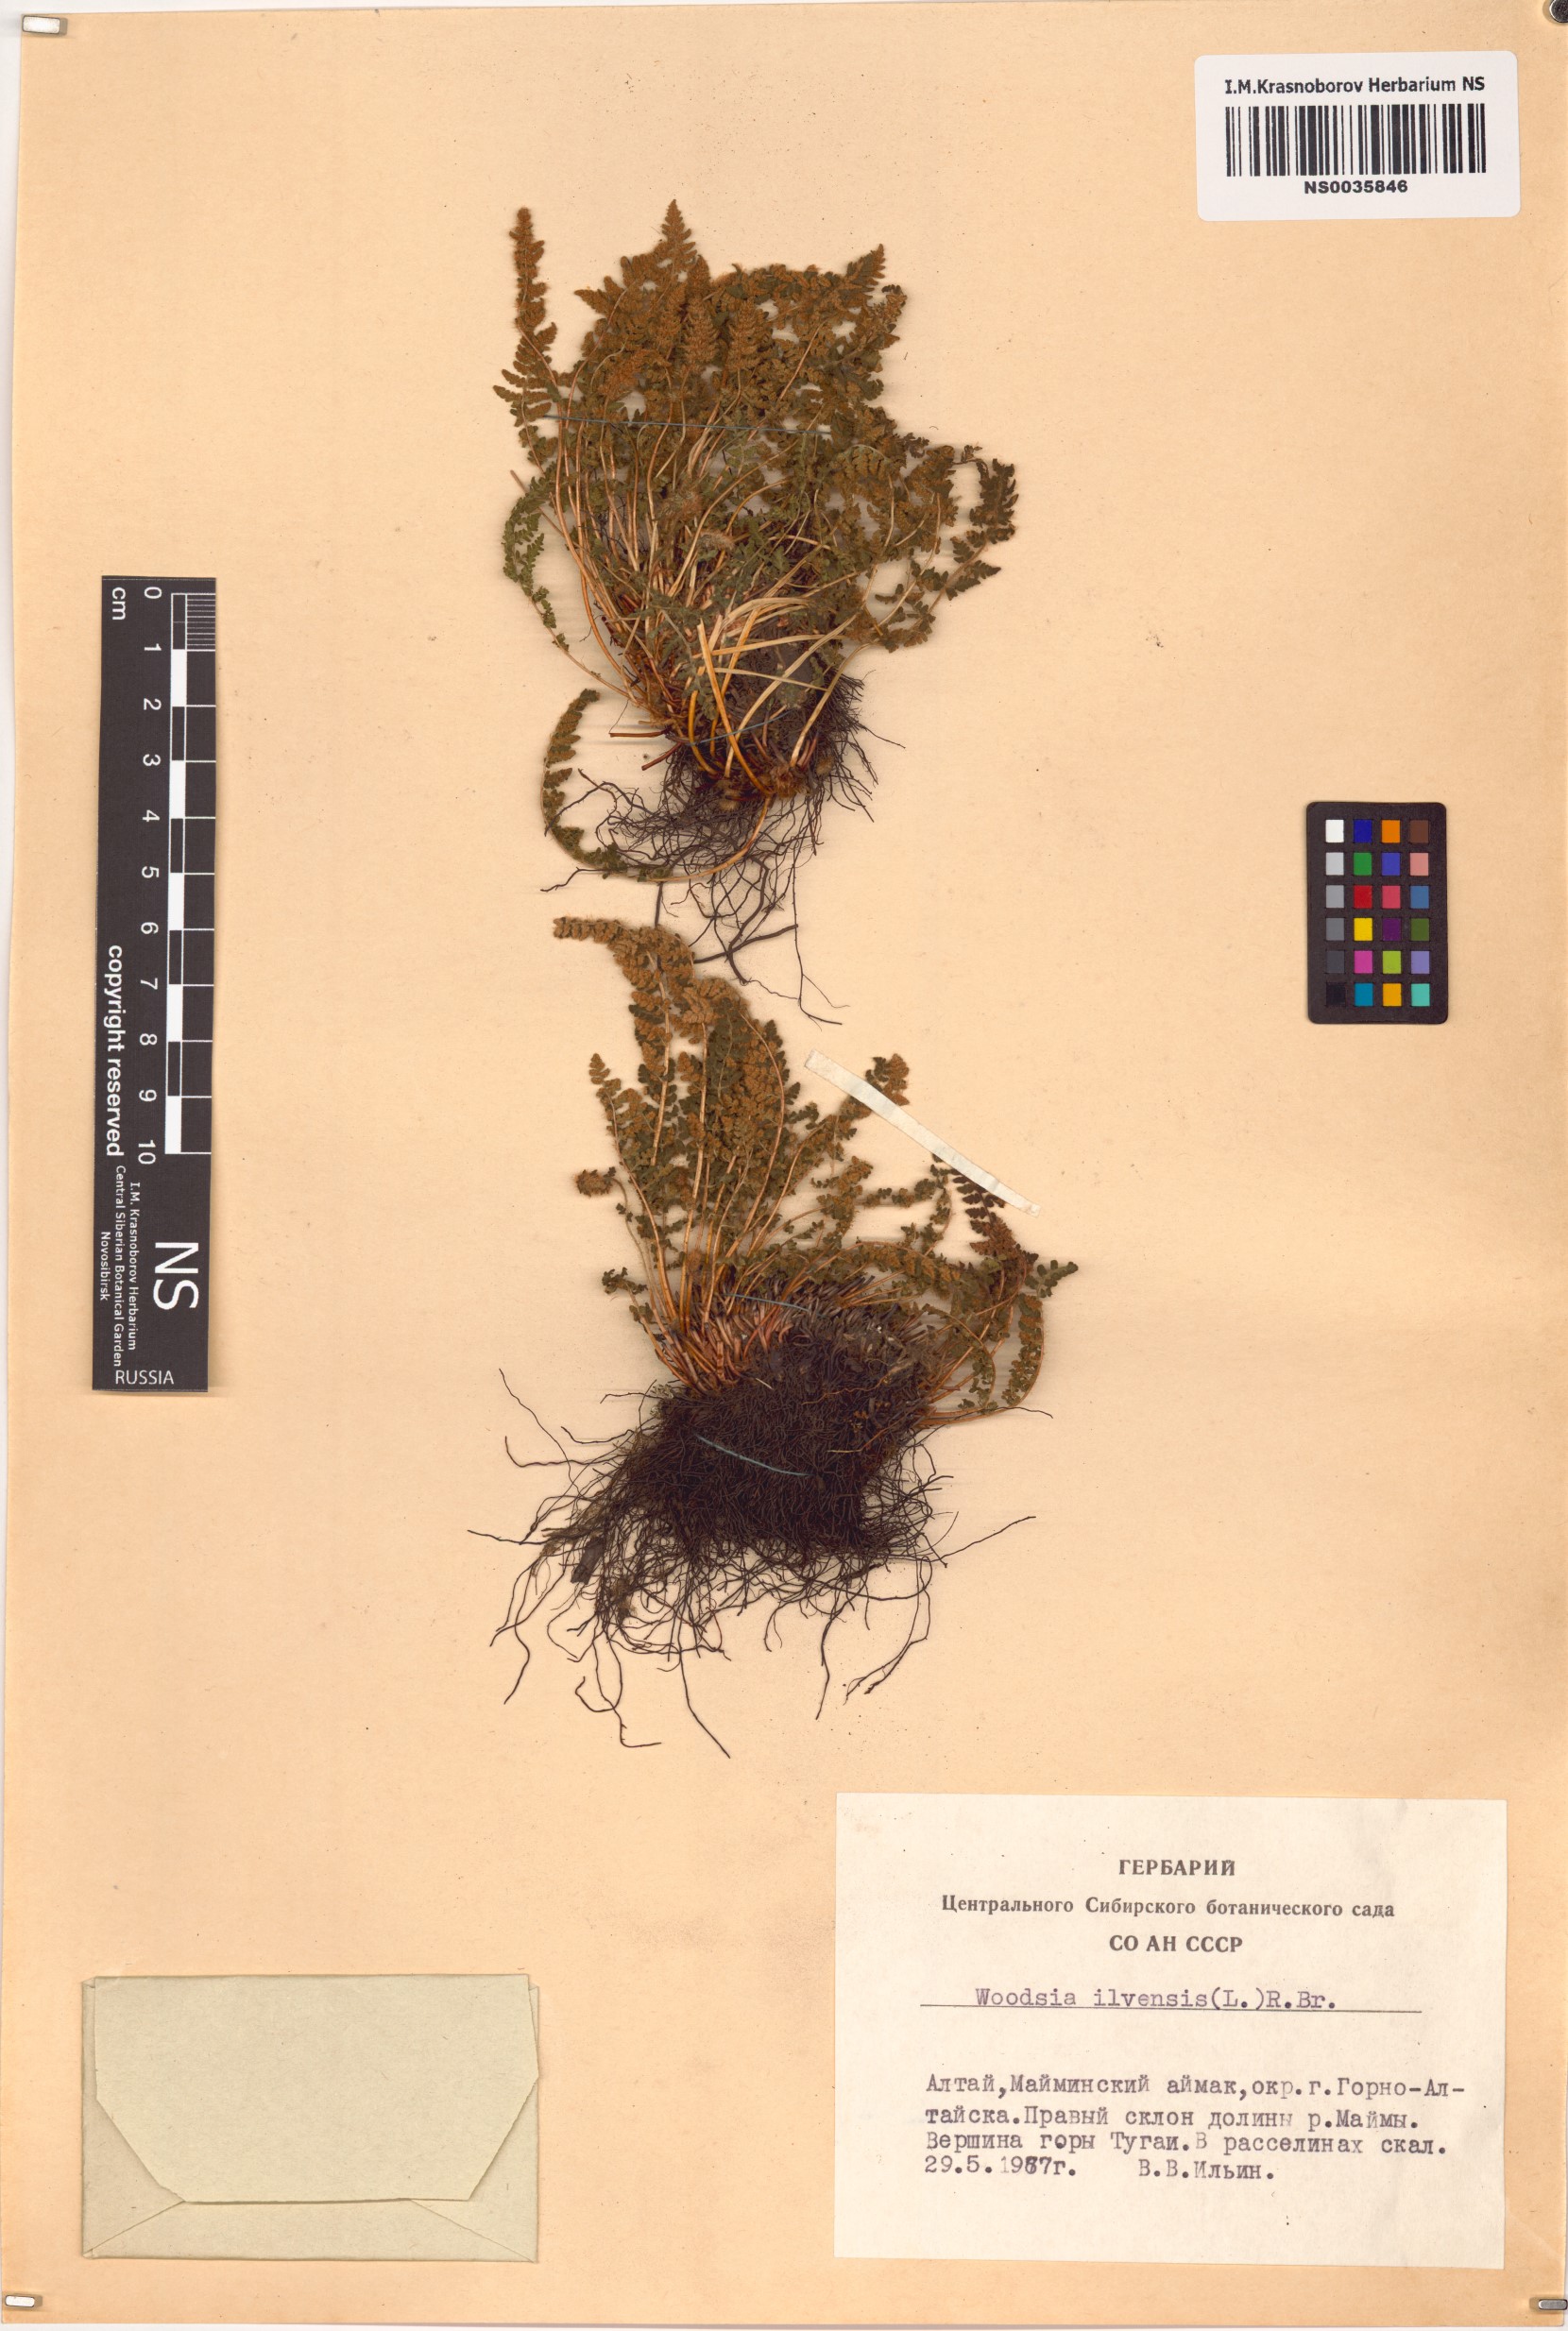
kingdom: Plantae
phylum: Tracheophyta
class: Polypodiopsida
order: Polypodiales
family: Woodsiaceae
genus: Woodsia
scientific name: Woodsia ilvensis
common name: Fragrant woodsia
